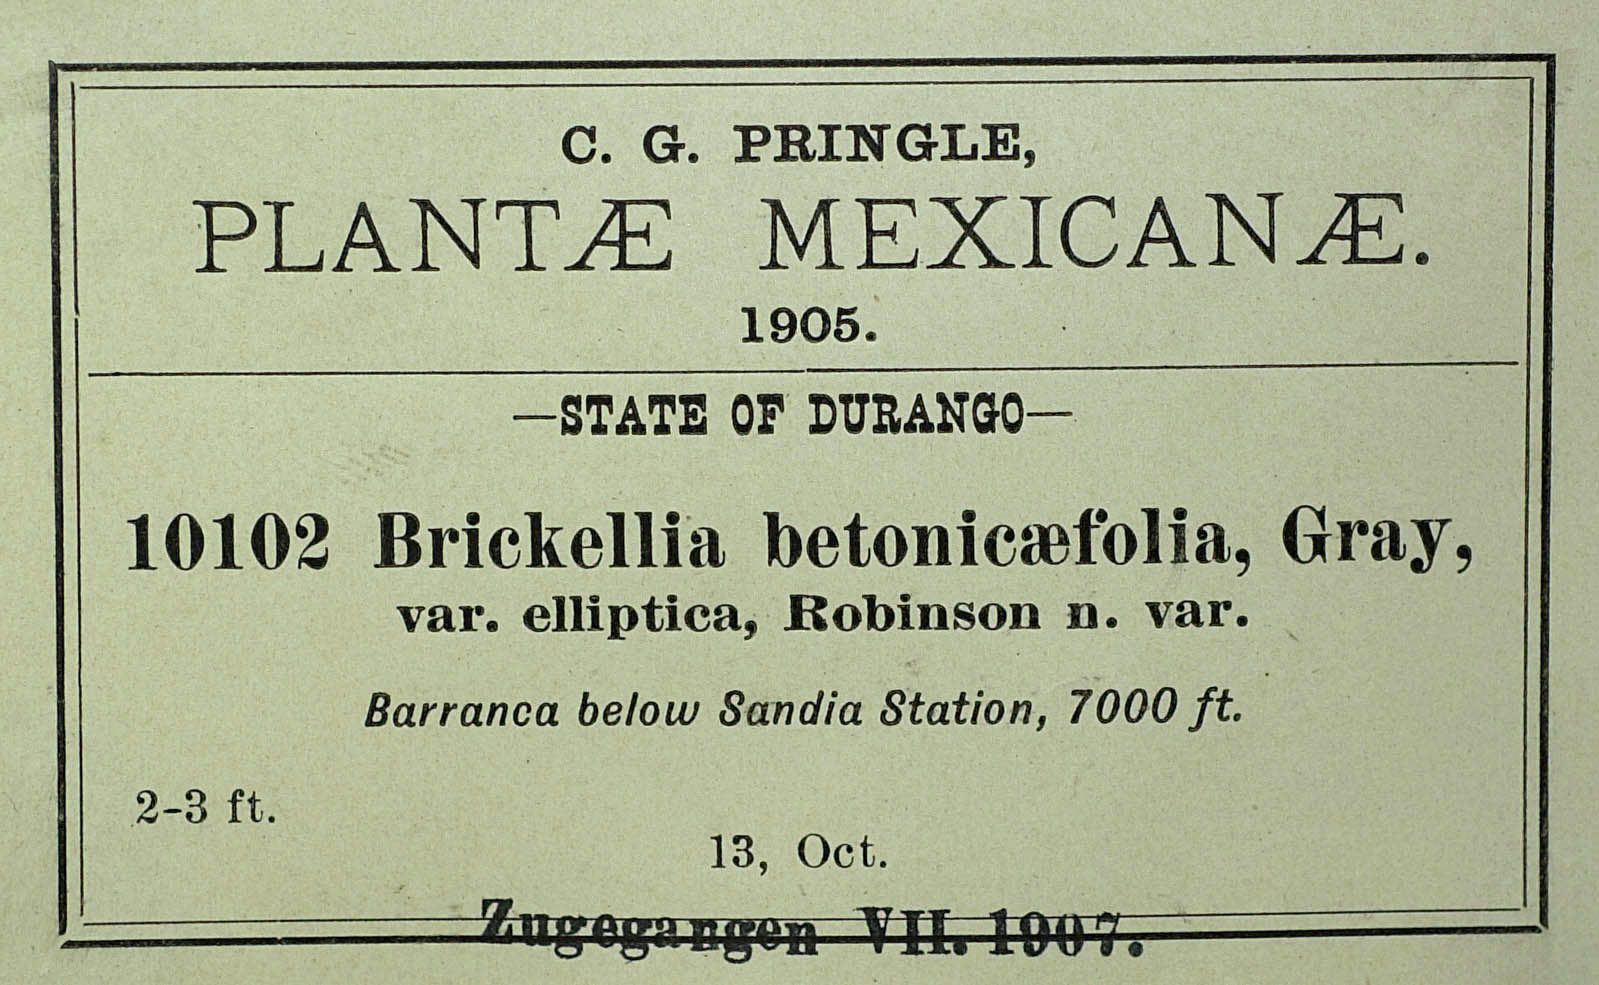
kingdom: Plantae
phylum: Tracheophyta
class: Magnoliopsida
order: Asterales
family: Asteraceae
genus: Brickellia
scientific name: Brickellia betonicaefolia
